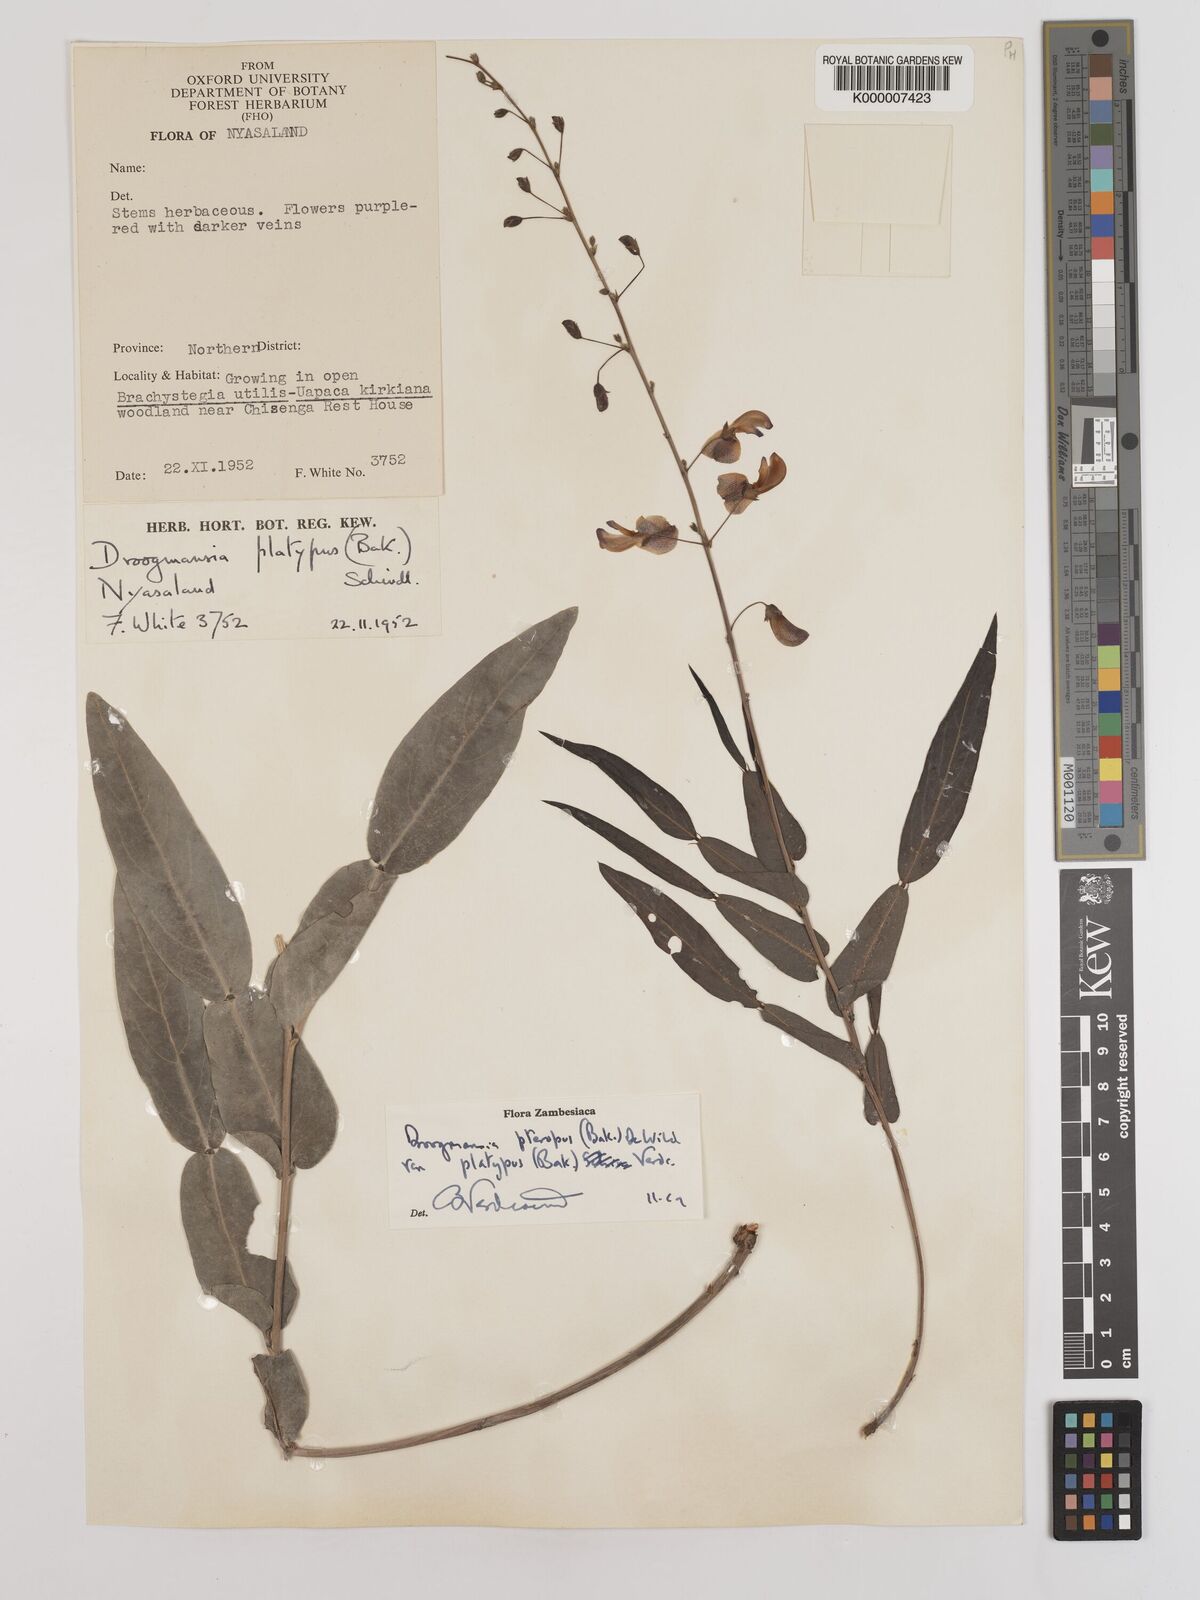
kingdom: Plantae
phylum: Tracheophyta
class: Magnoliopsida
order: Fabales
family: Fabaceae
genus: Droogmansia
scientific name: Droogmansia pteropus
